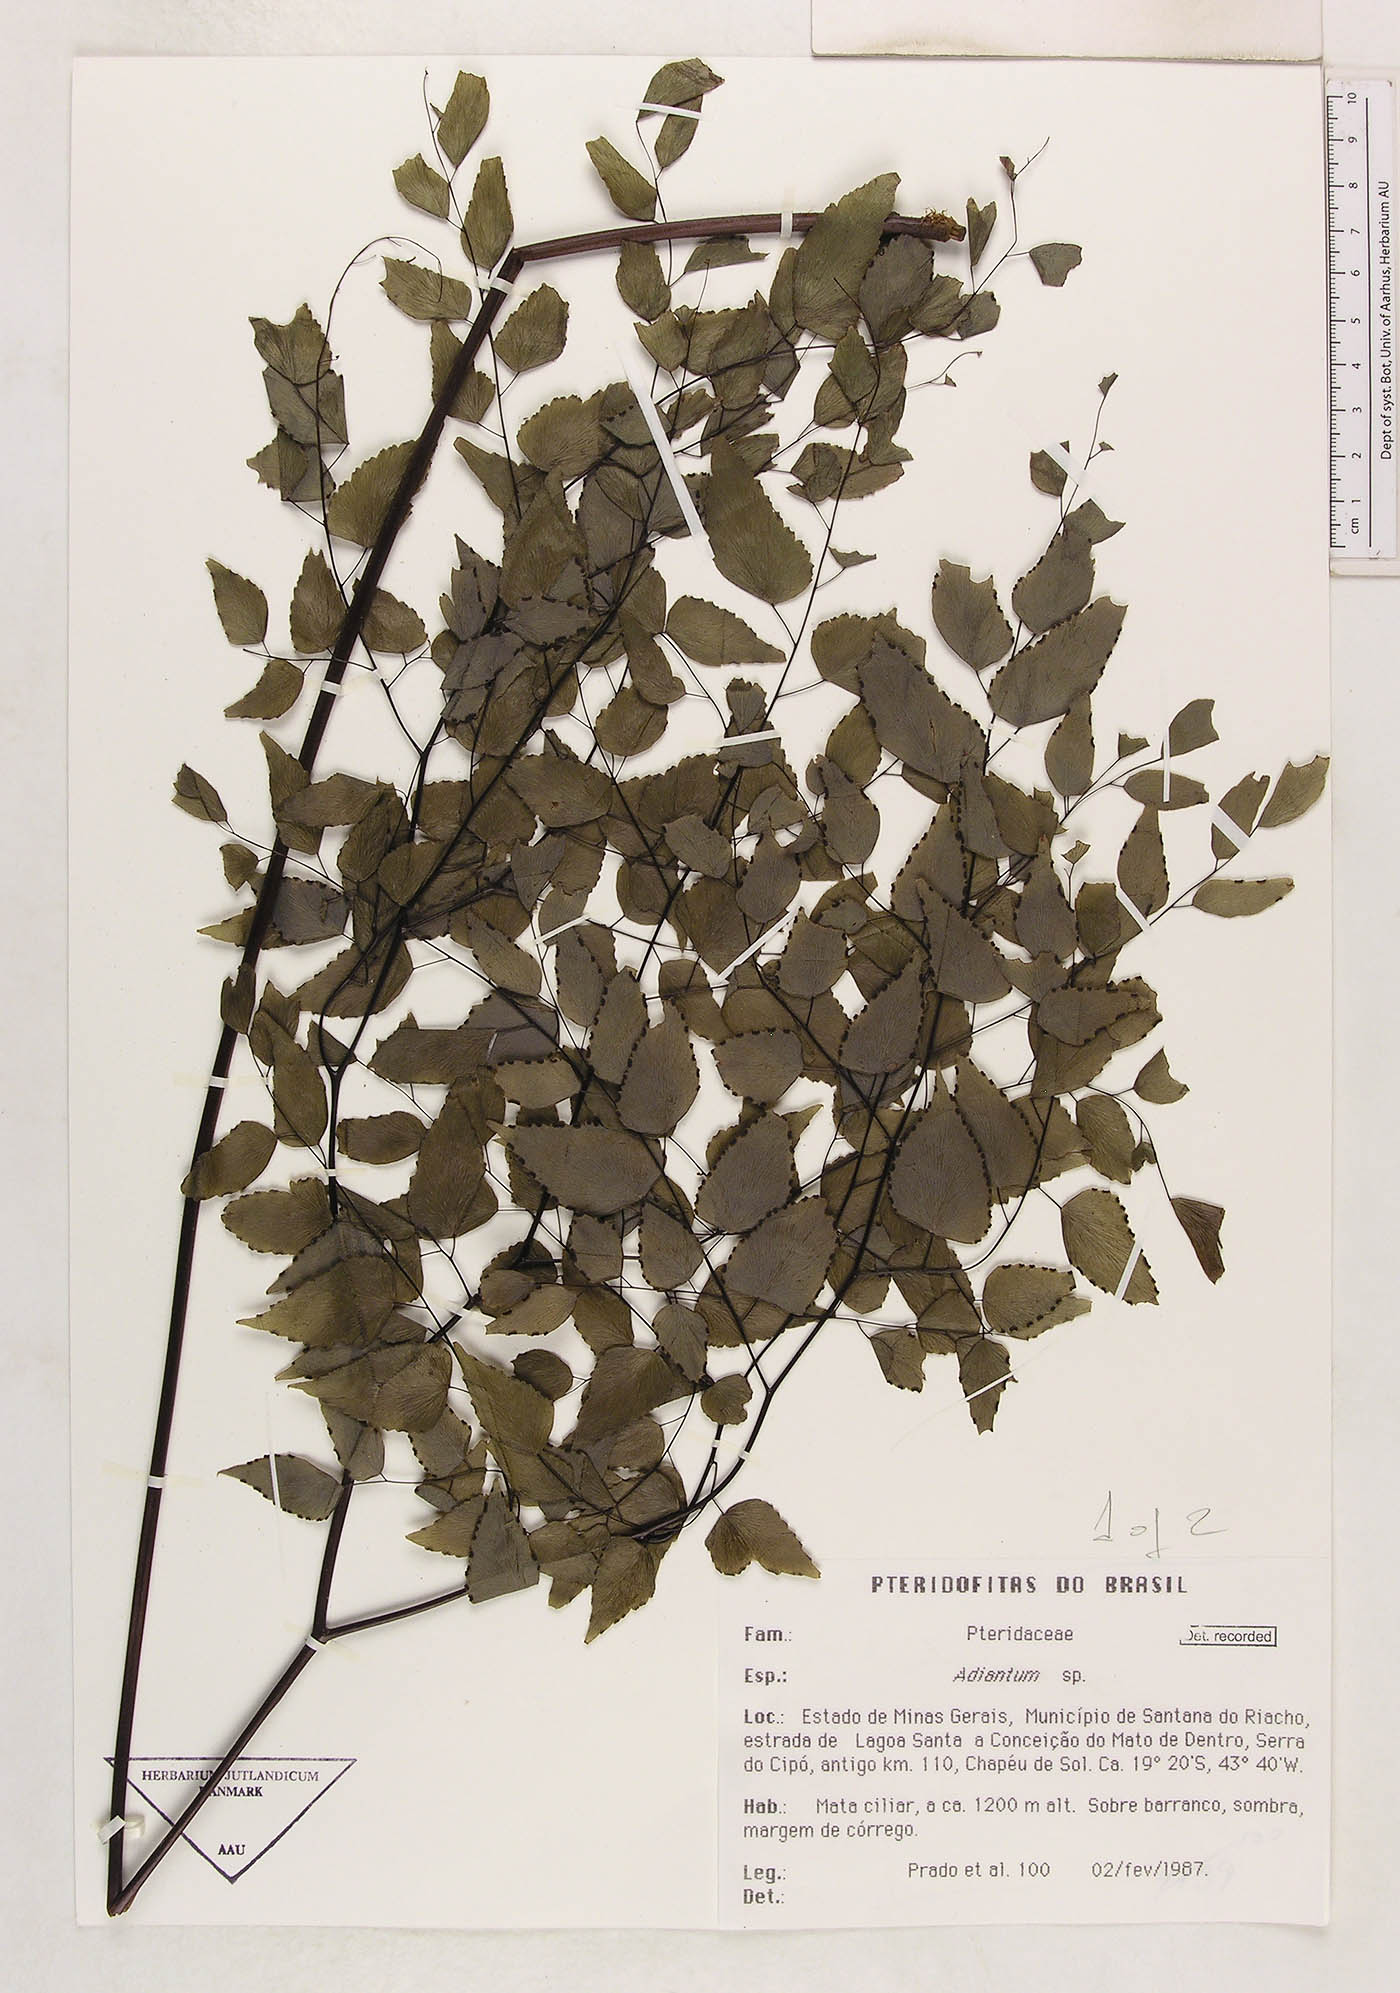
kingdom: Plantae
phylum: Tracheophyta
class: Polypodiopsida
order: Polypodiales
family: Pteridaceae
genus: Adiantum
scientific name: Adiantum subcordatum
